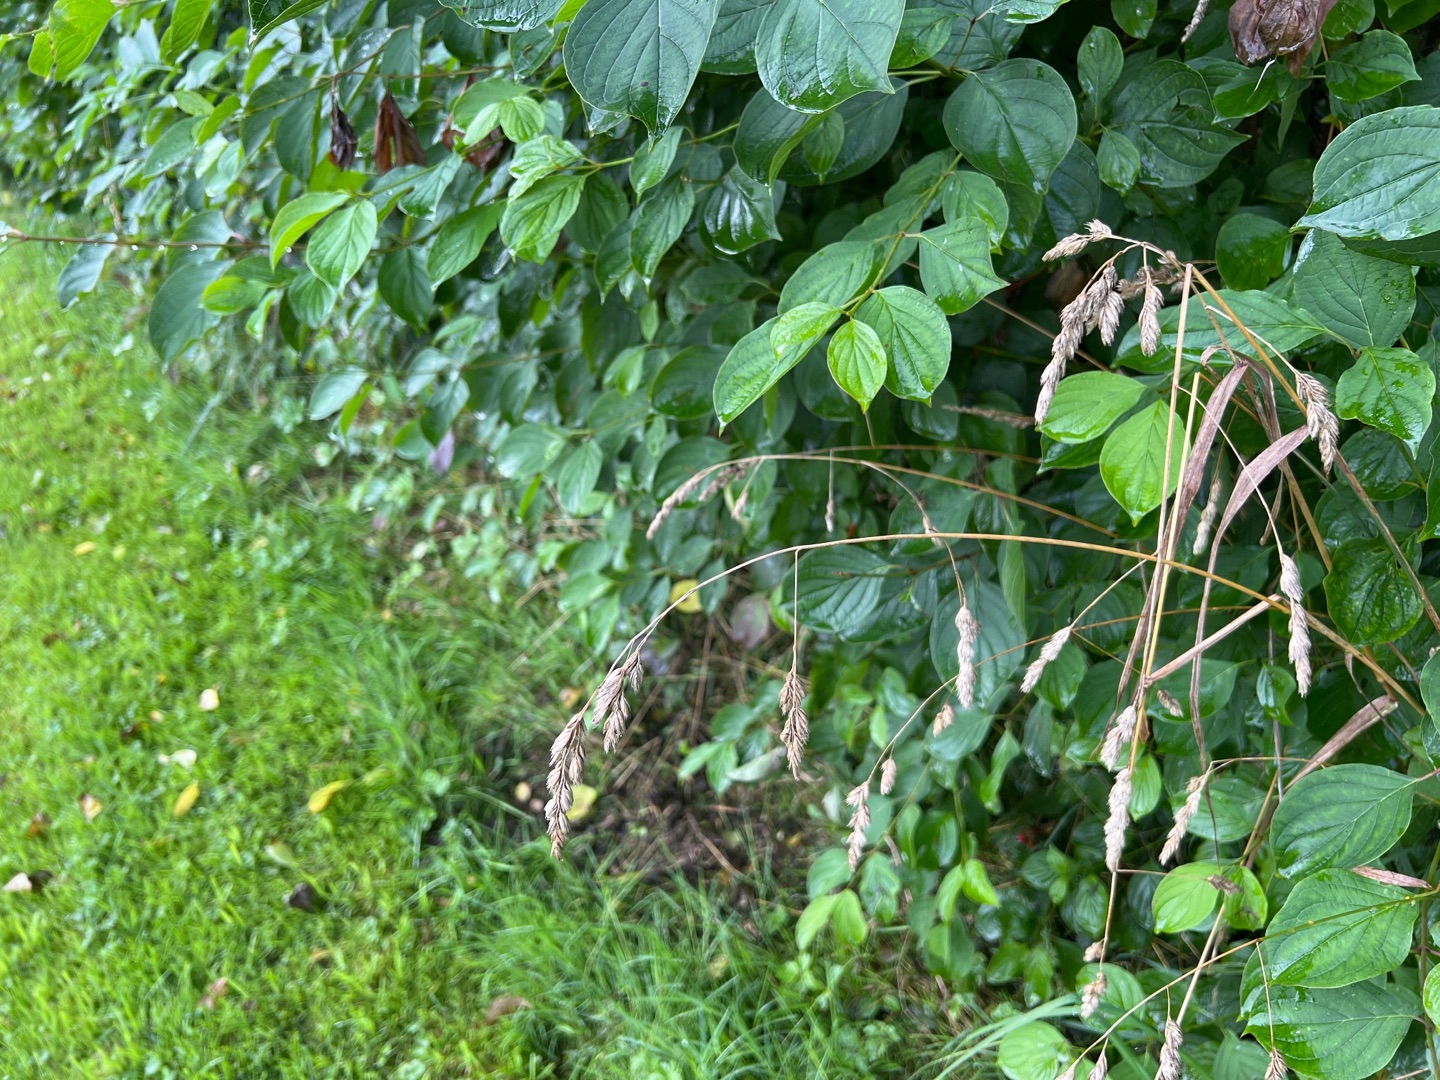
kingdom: Plantae
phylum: Tracheophyta
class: Liliopsida
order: Poales
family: Poaceae
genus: Dactylis
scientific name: Dactylis glomerata
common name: Almindelig hundegræs
